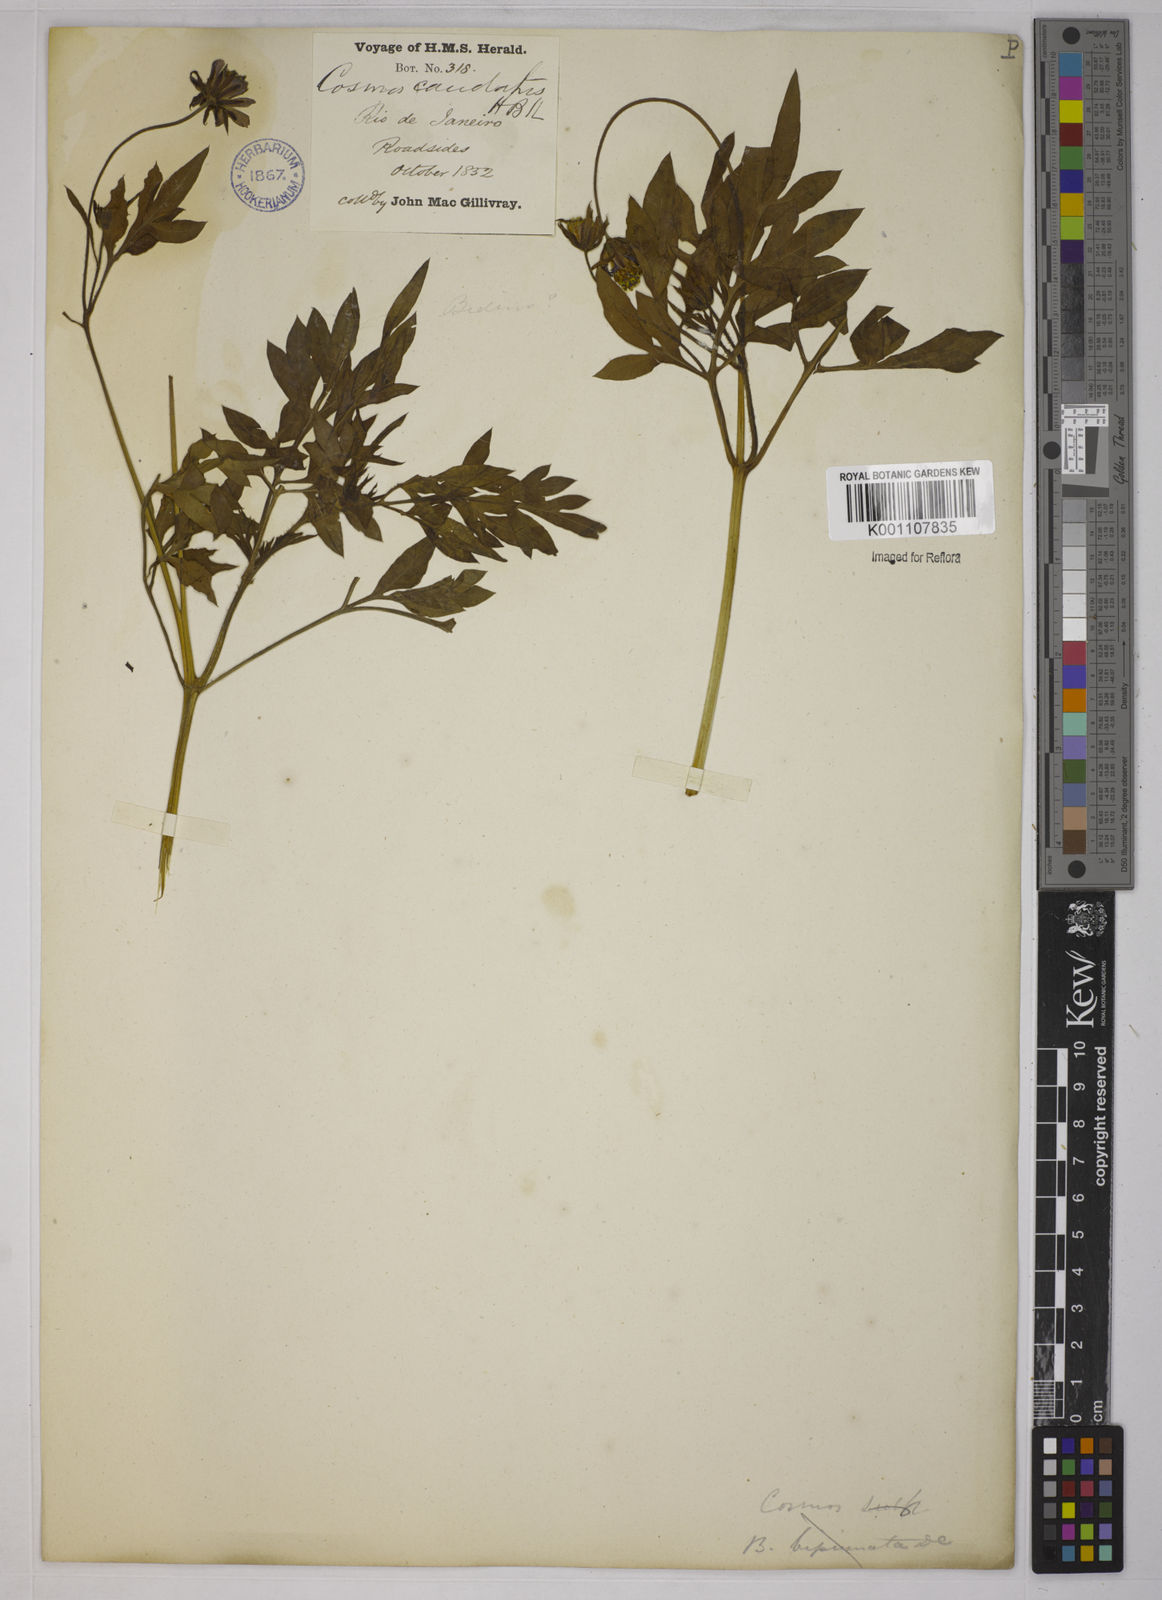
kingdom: Plantae
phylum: Tracheophyta
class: Magnoliopsida
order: Asterales
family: Asteraceae
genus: Cosmos
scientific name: Cosmos caudatus
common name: Wild cosmos
